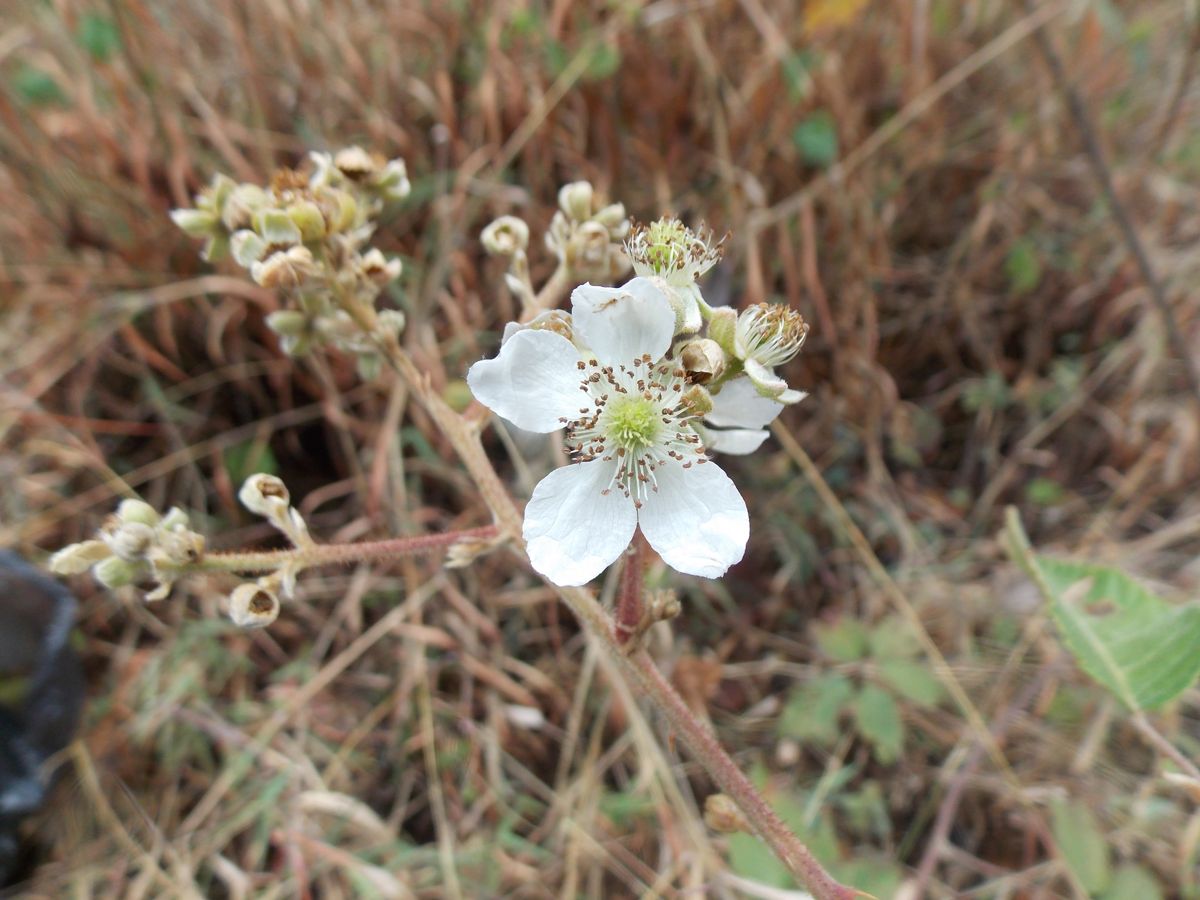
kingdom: Plantae
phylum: Tracheophyta
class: Magnoliopsida
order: Rosales
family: Rosaceae
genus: Rubus
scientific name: Rubus adenotrichos
